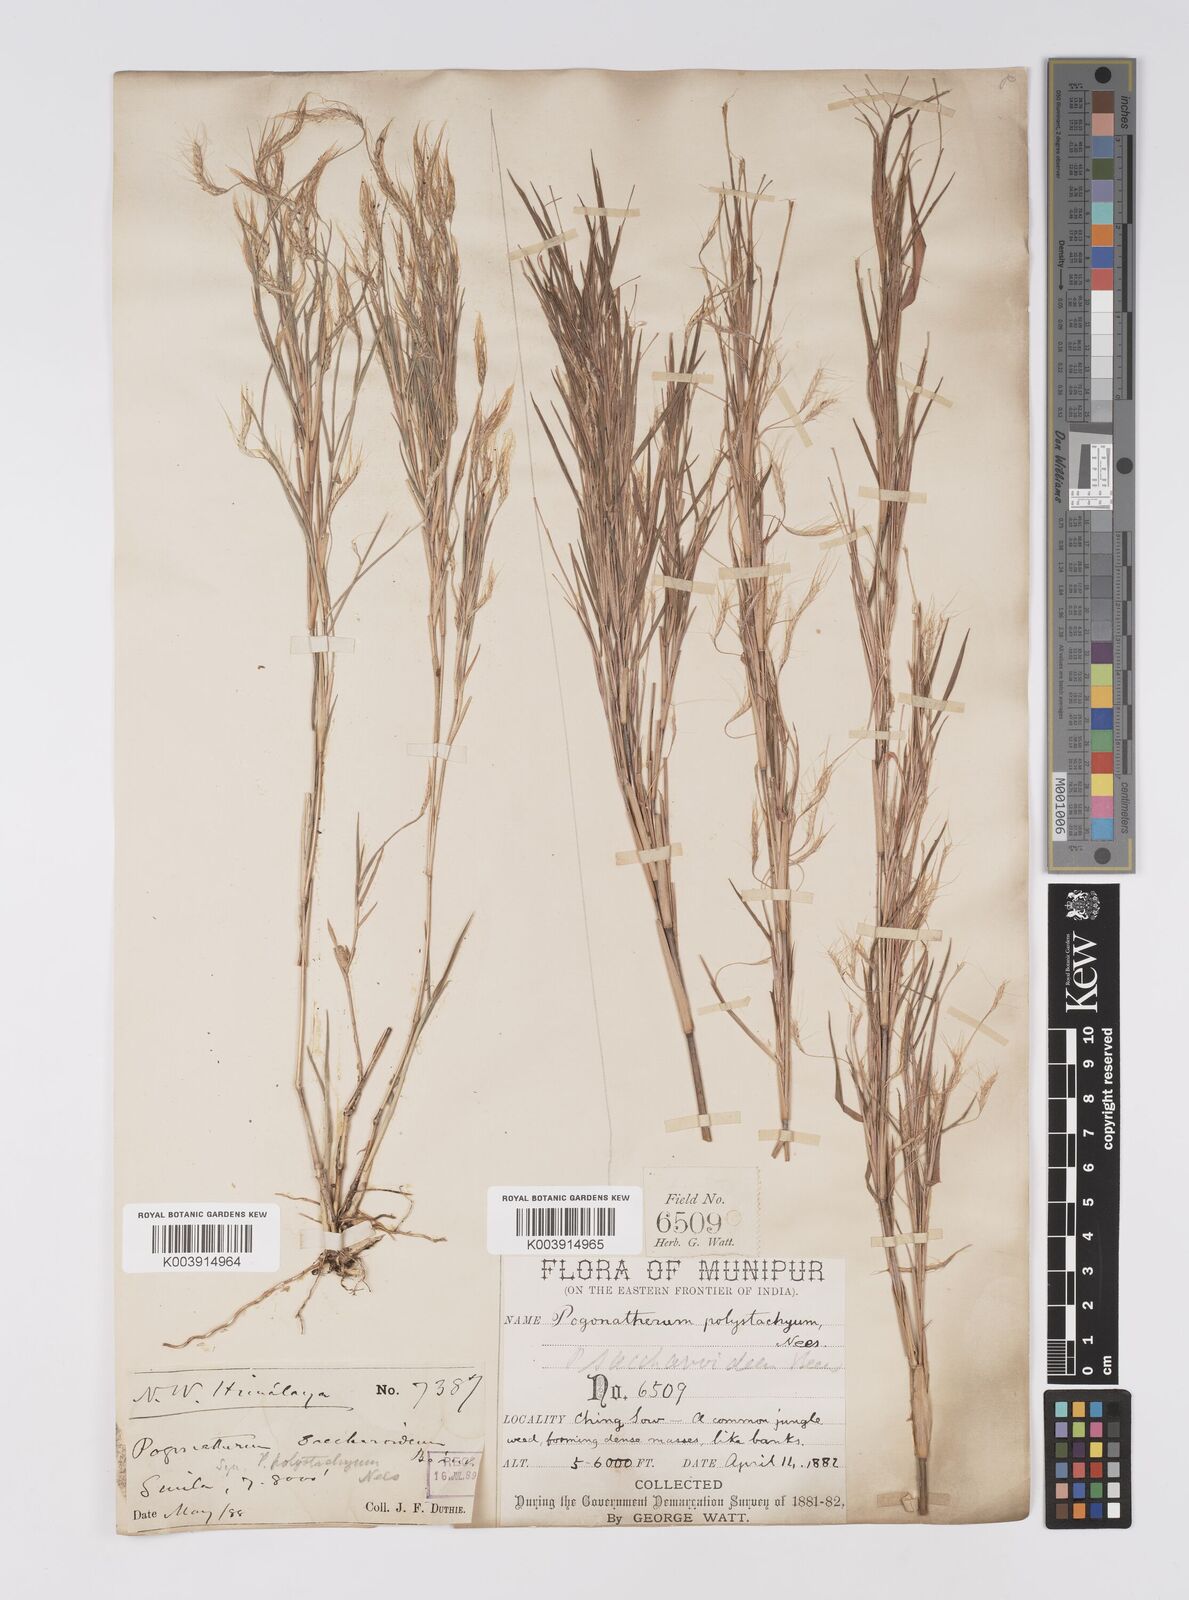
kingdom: Plantae
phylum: Tracheophyta
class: Liliopsida
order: Poales
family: Poaceae
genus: Pogonatherum
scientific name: Pogonatherum paniceum
